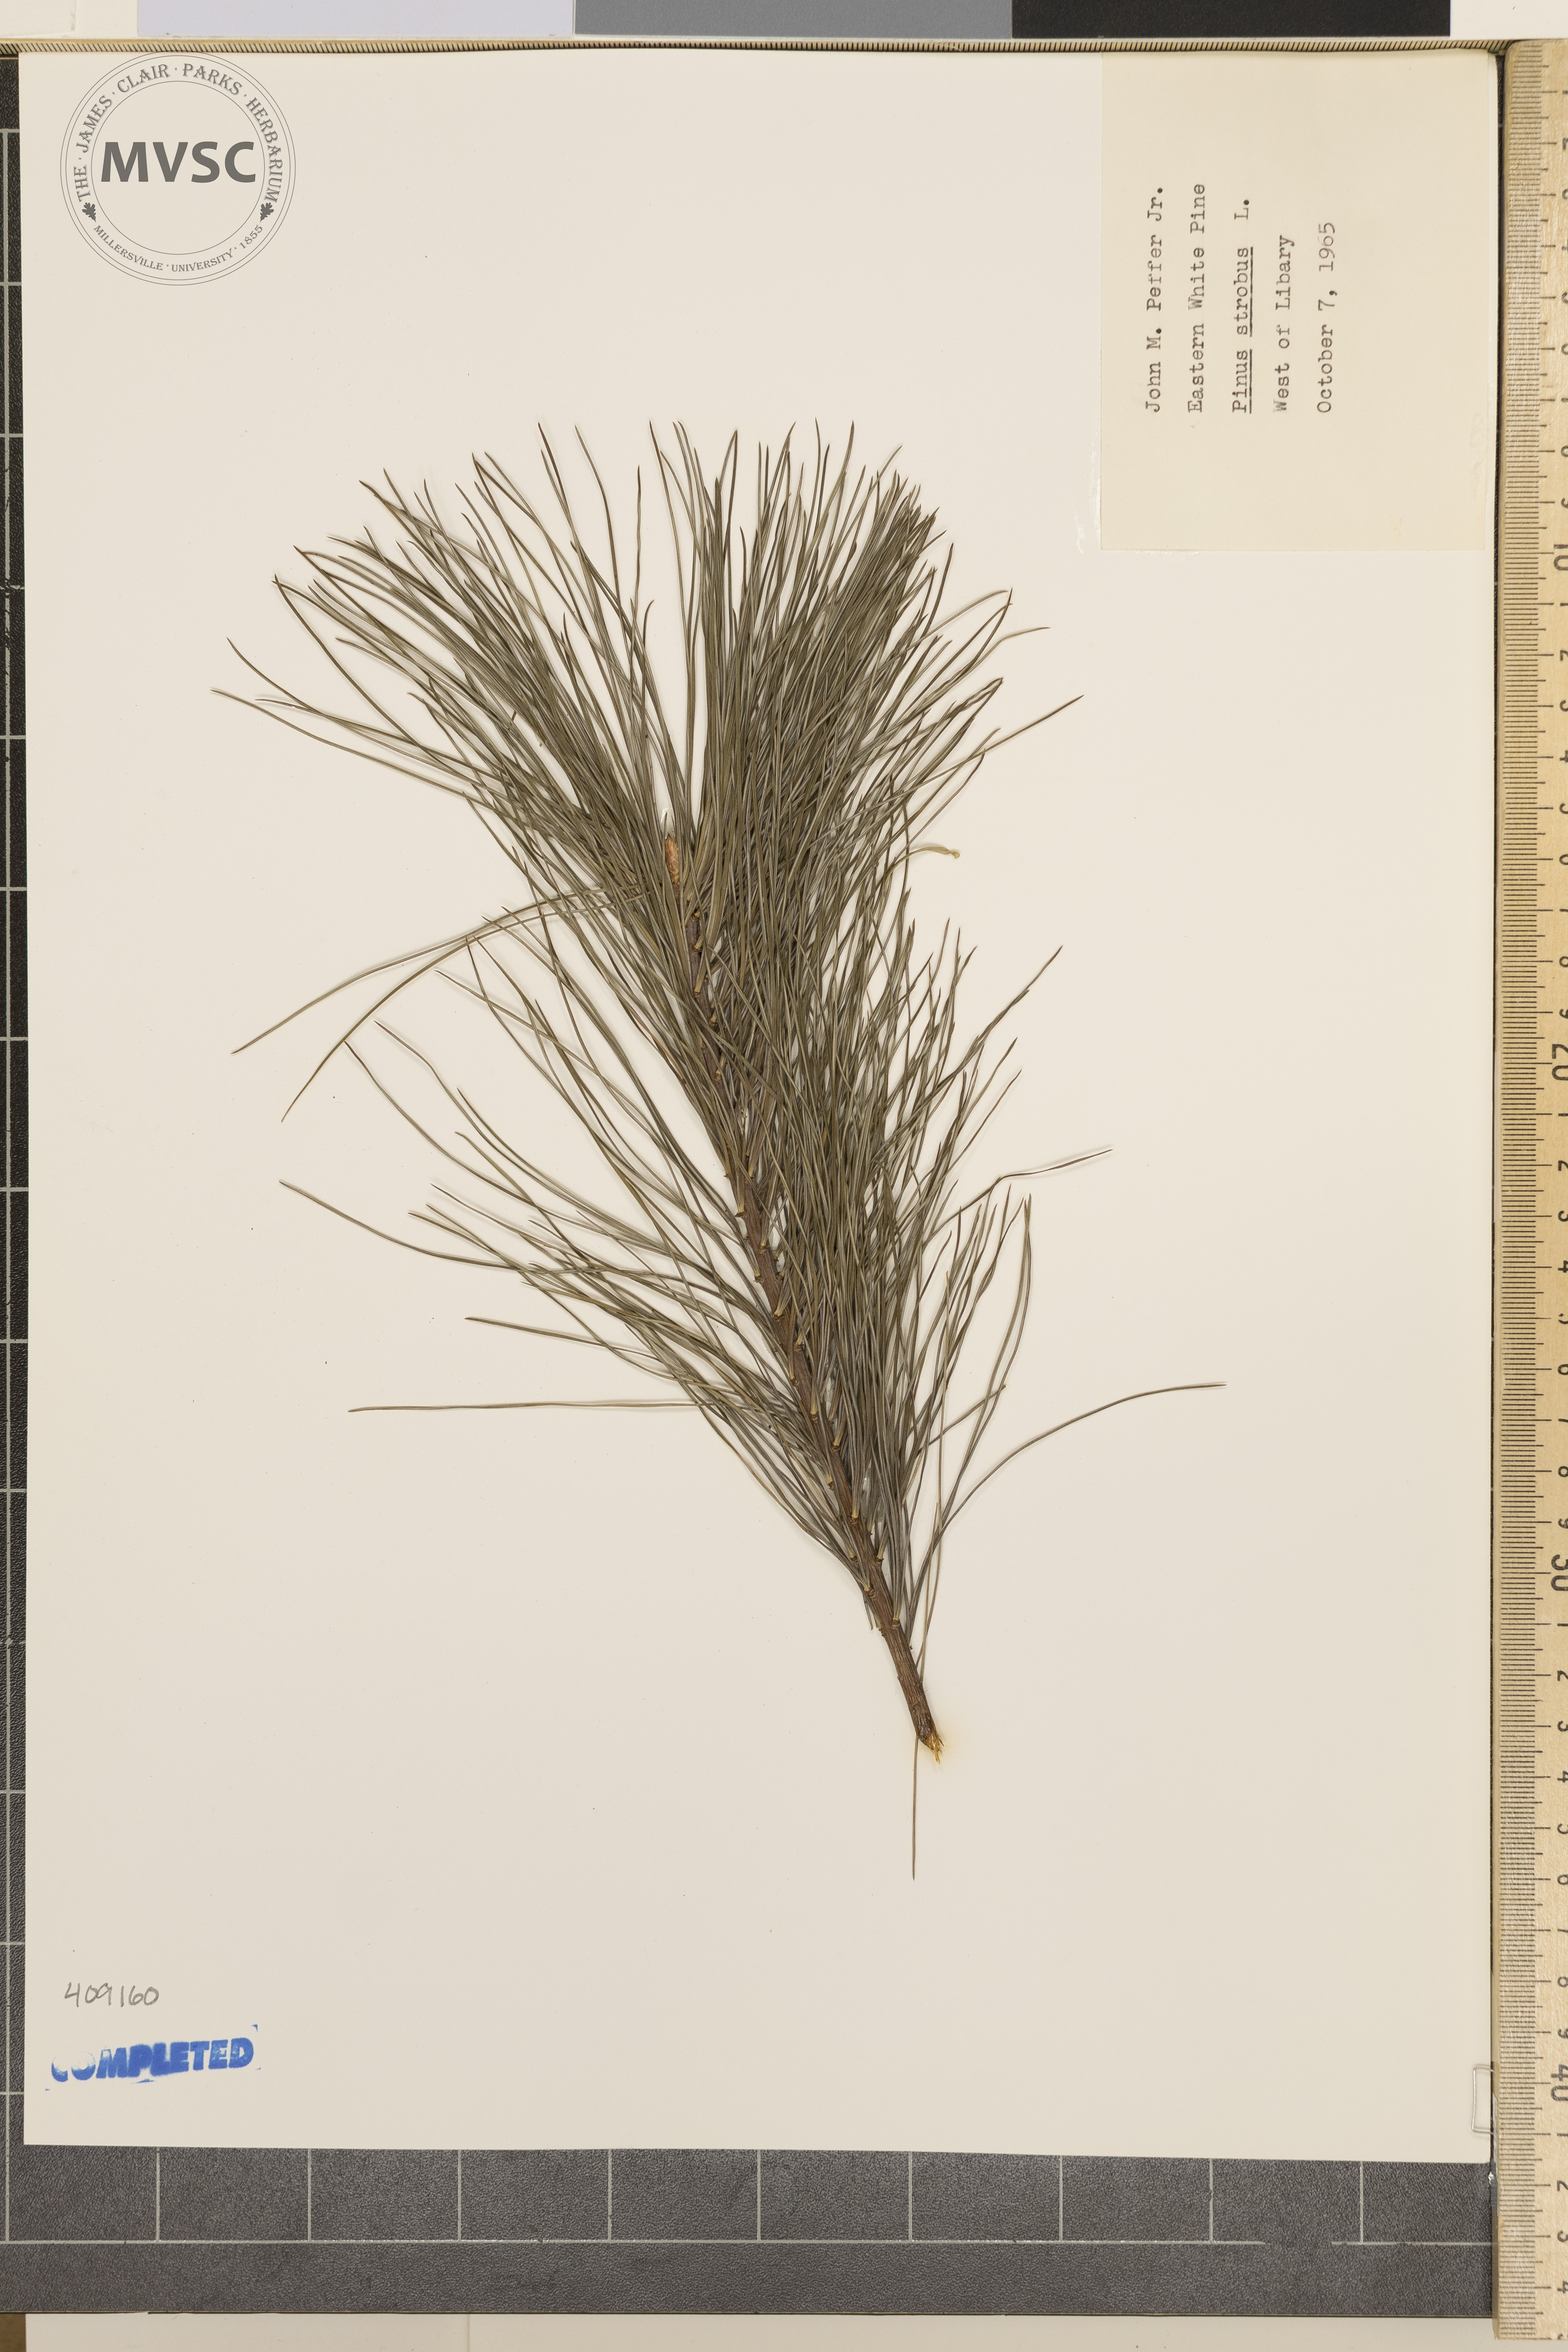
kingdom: Plantae
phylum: Tracheophyta
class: Pinopsida
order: Pinales
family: Pinaceae
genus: Pinus
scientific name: Pinus strobus
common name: eastern white pine
